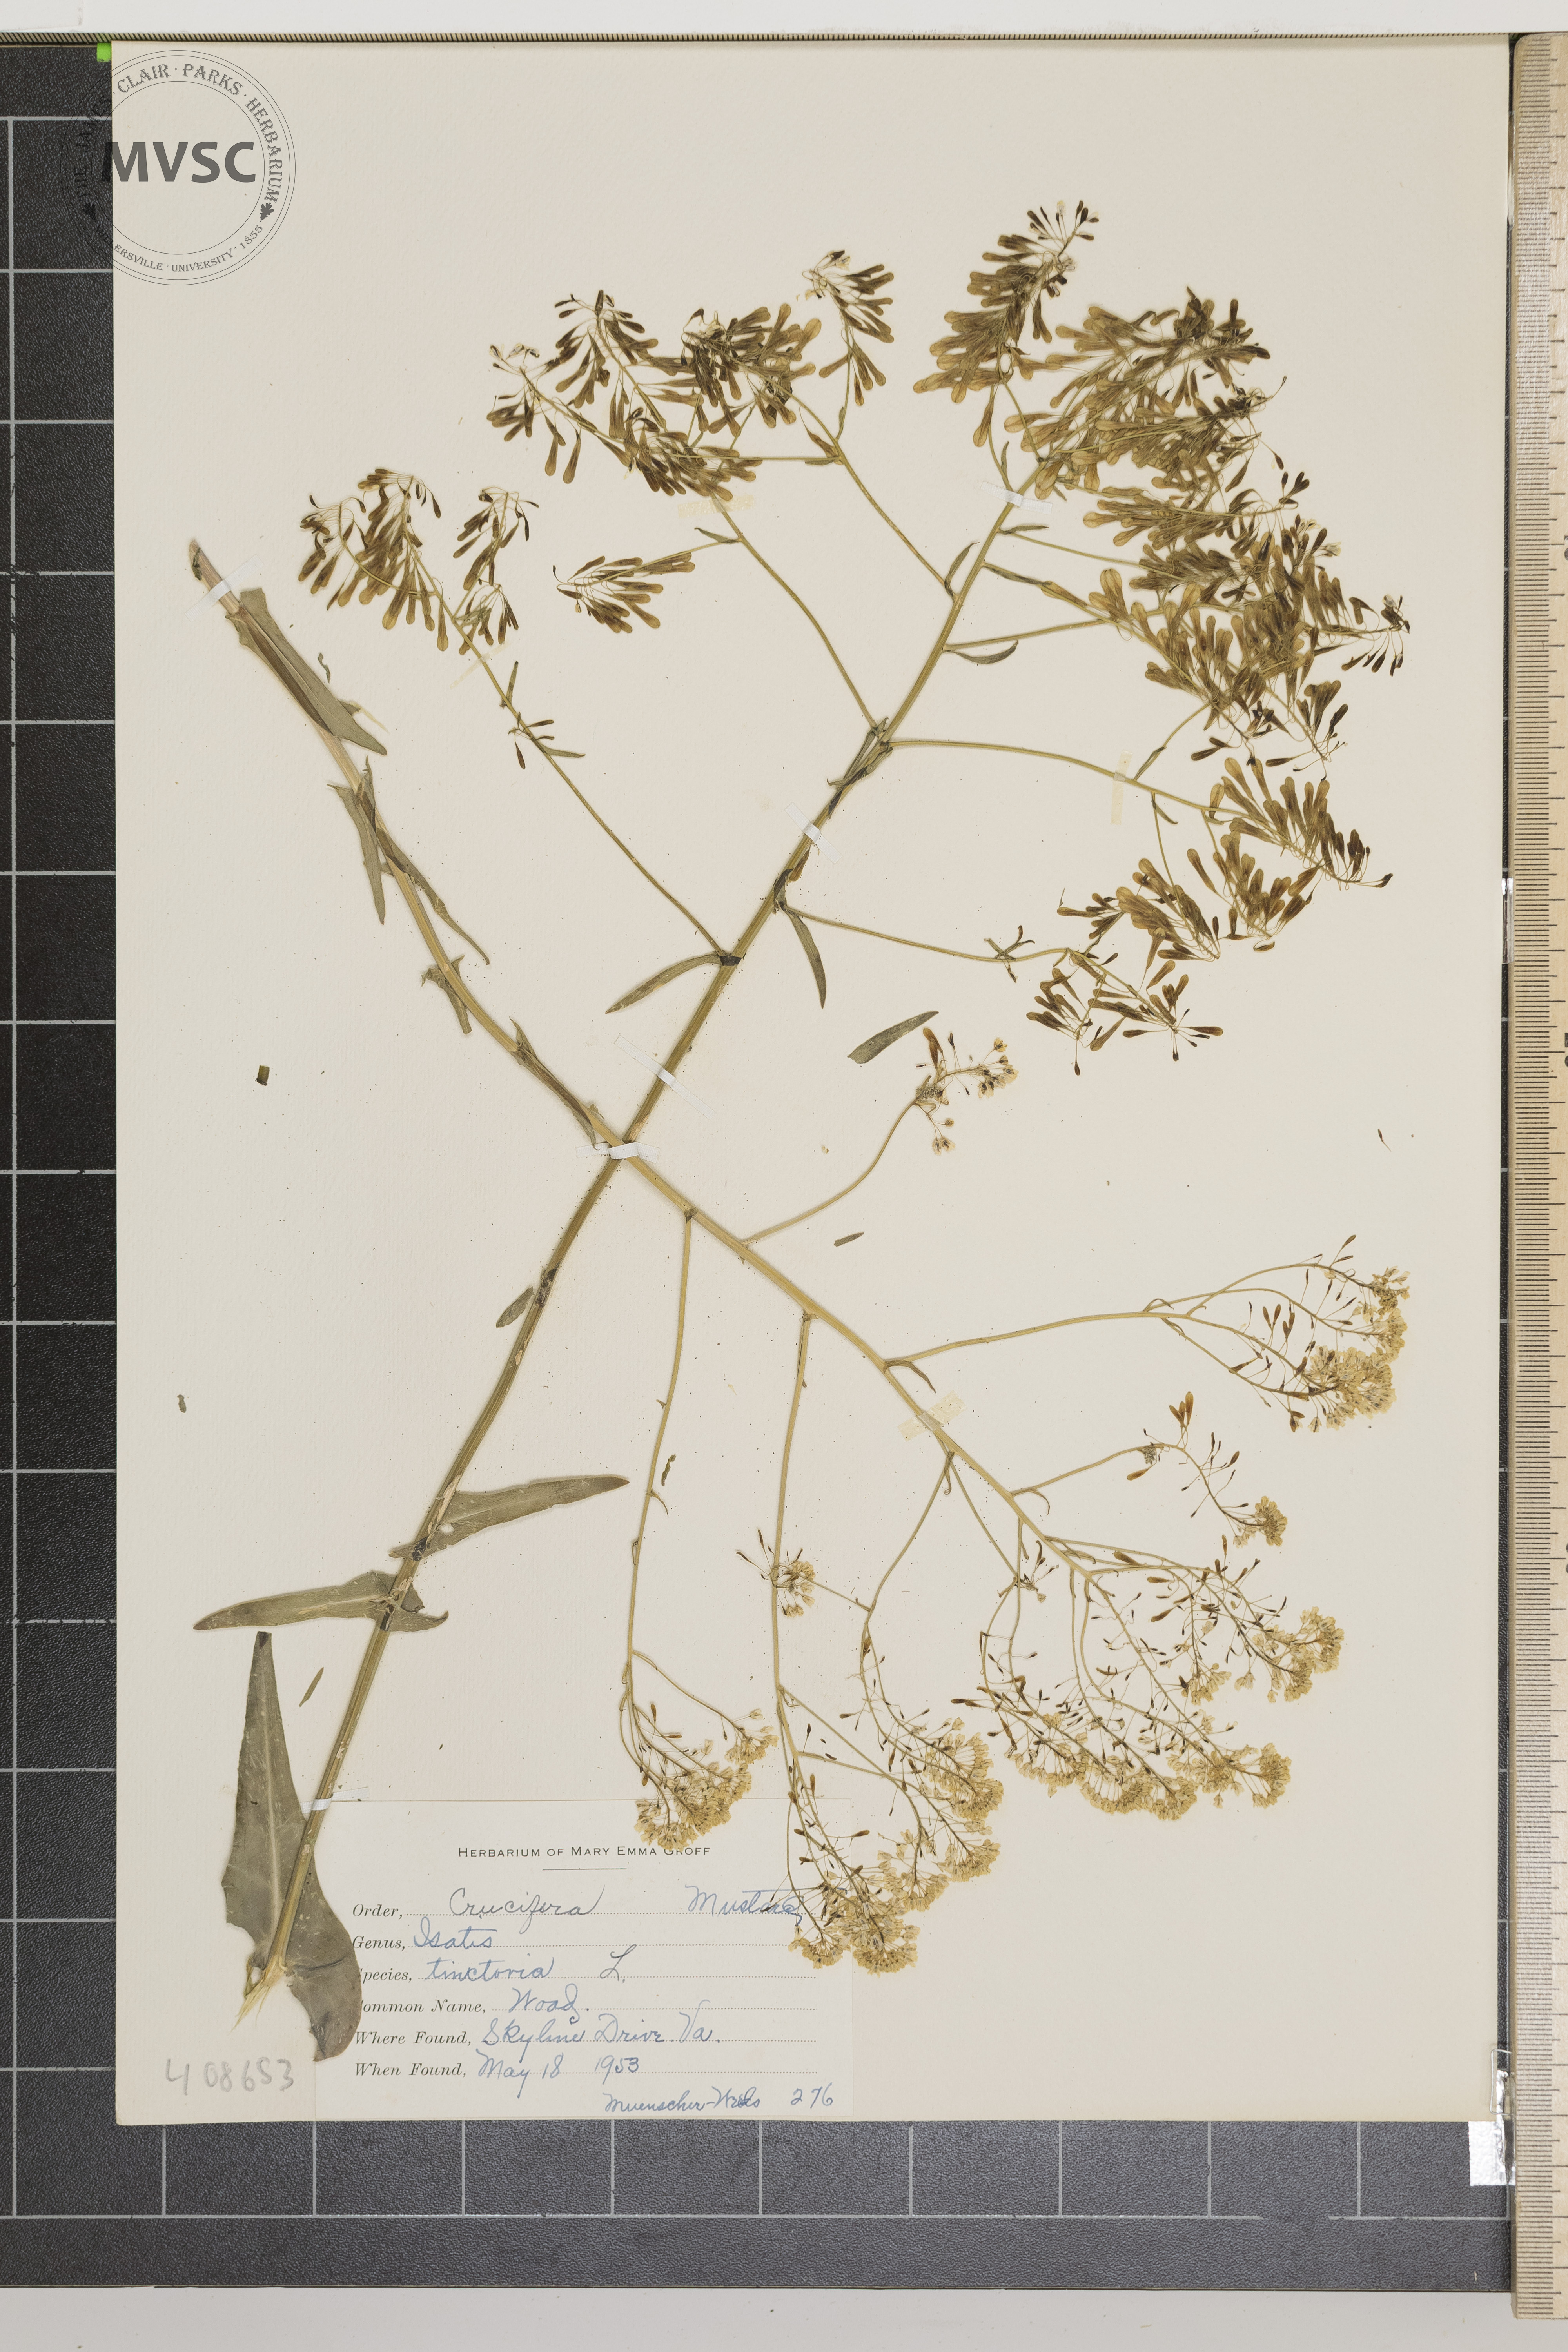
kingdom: Plantae
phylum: Tracheophyta
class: Magnoliopsida
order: Brassicales
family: Brassicaceae
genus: Isatis
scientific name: Isatis tinctoria
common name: Woad
